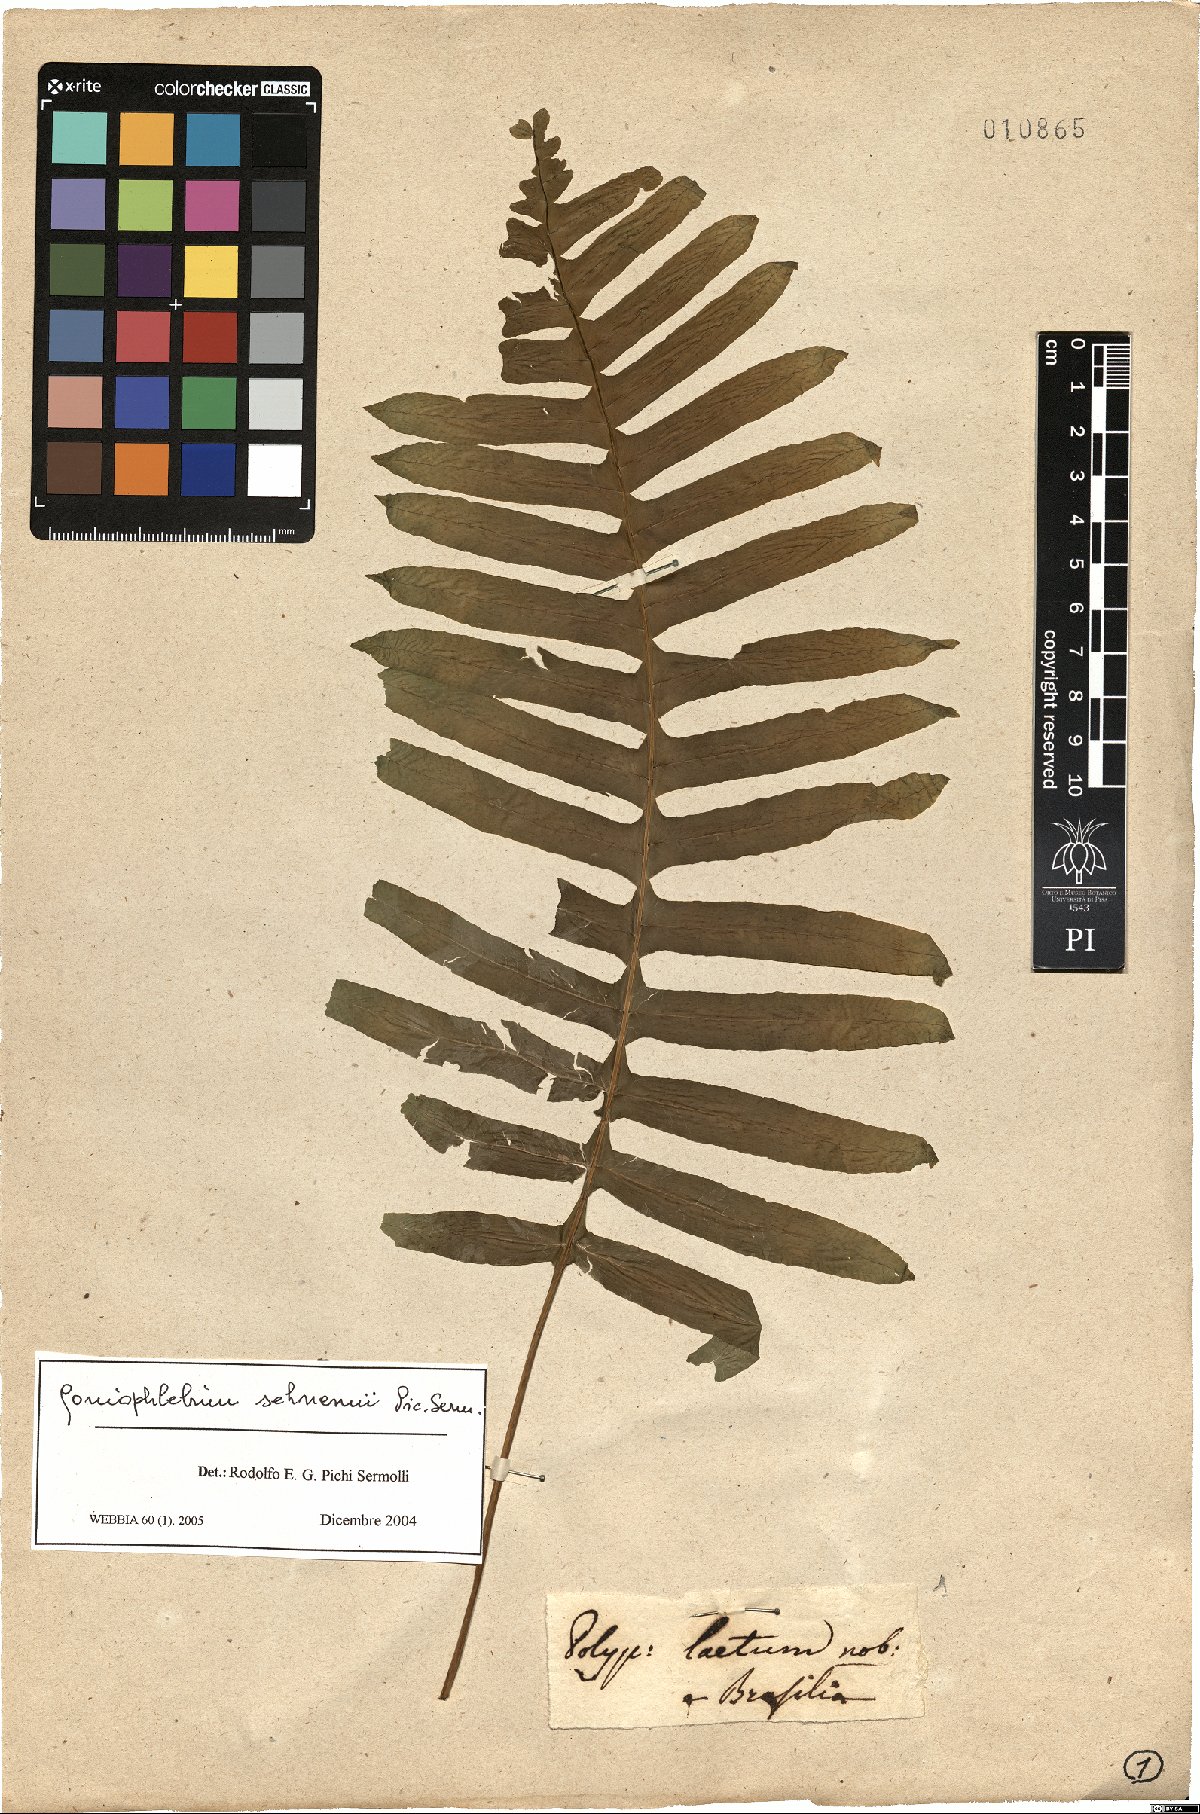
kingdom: Plantae
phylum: Tracheophyta
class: Polypodiopsida
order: Polypodiales
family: Polypodiaceae
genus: Serpocaulon
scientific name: Serpocaulon laetum
